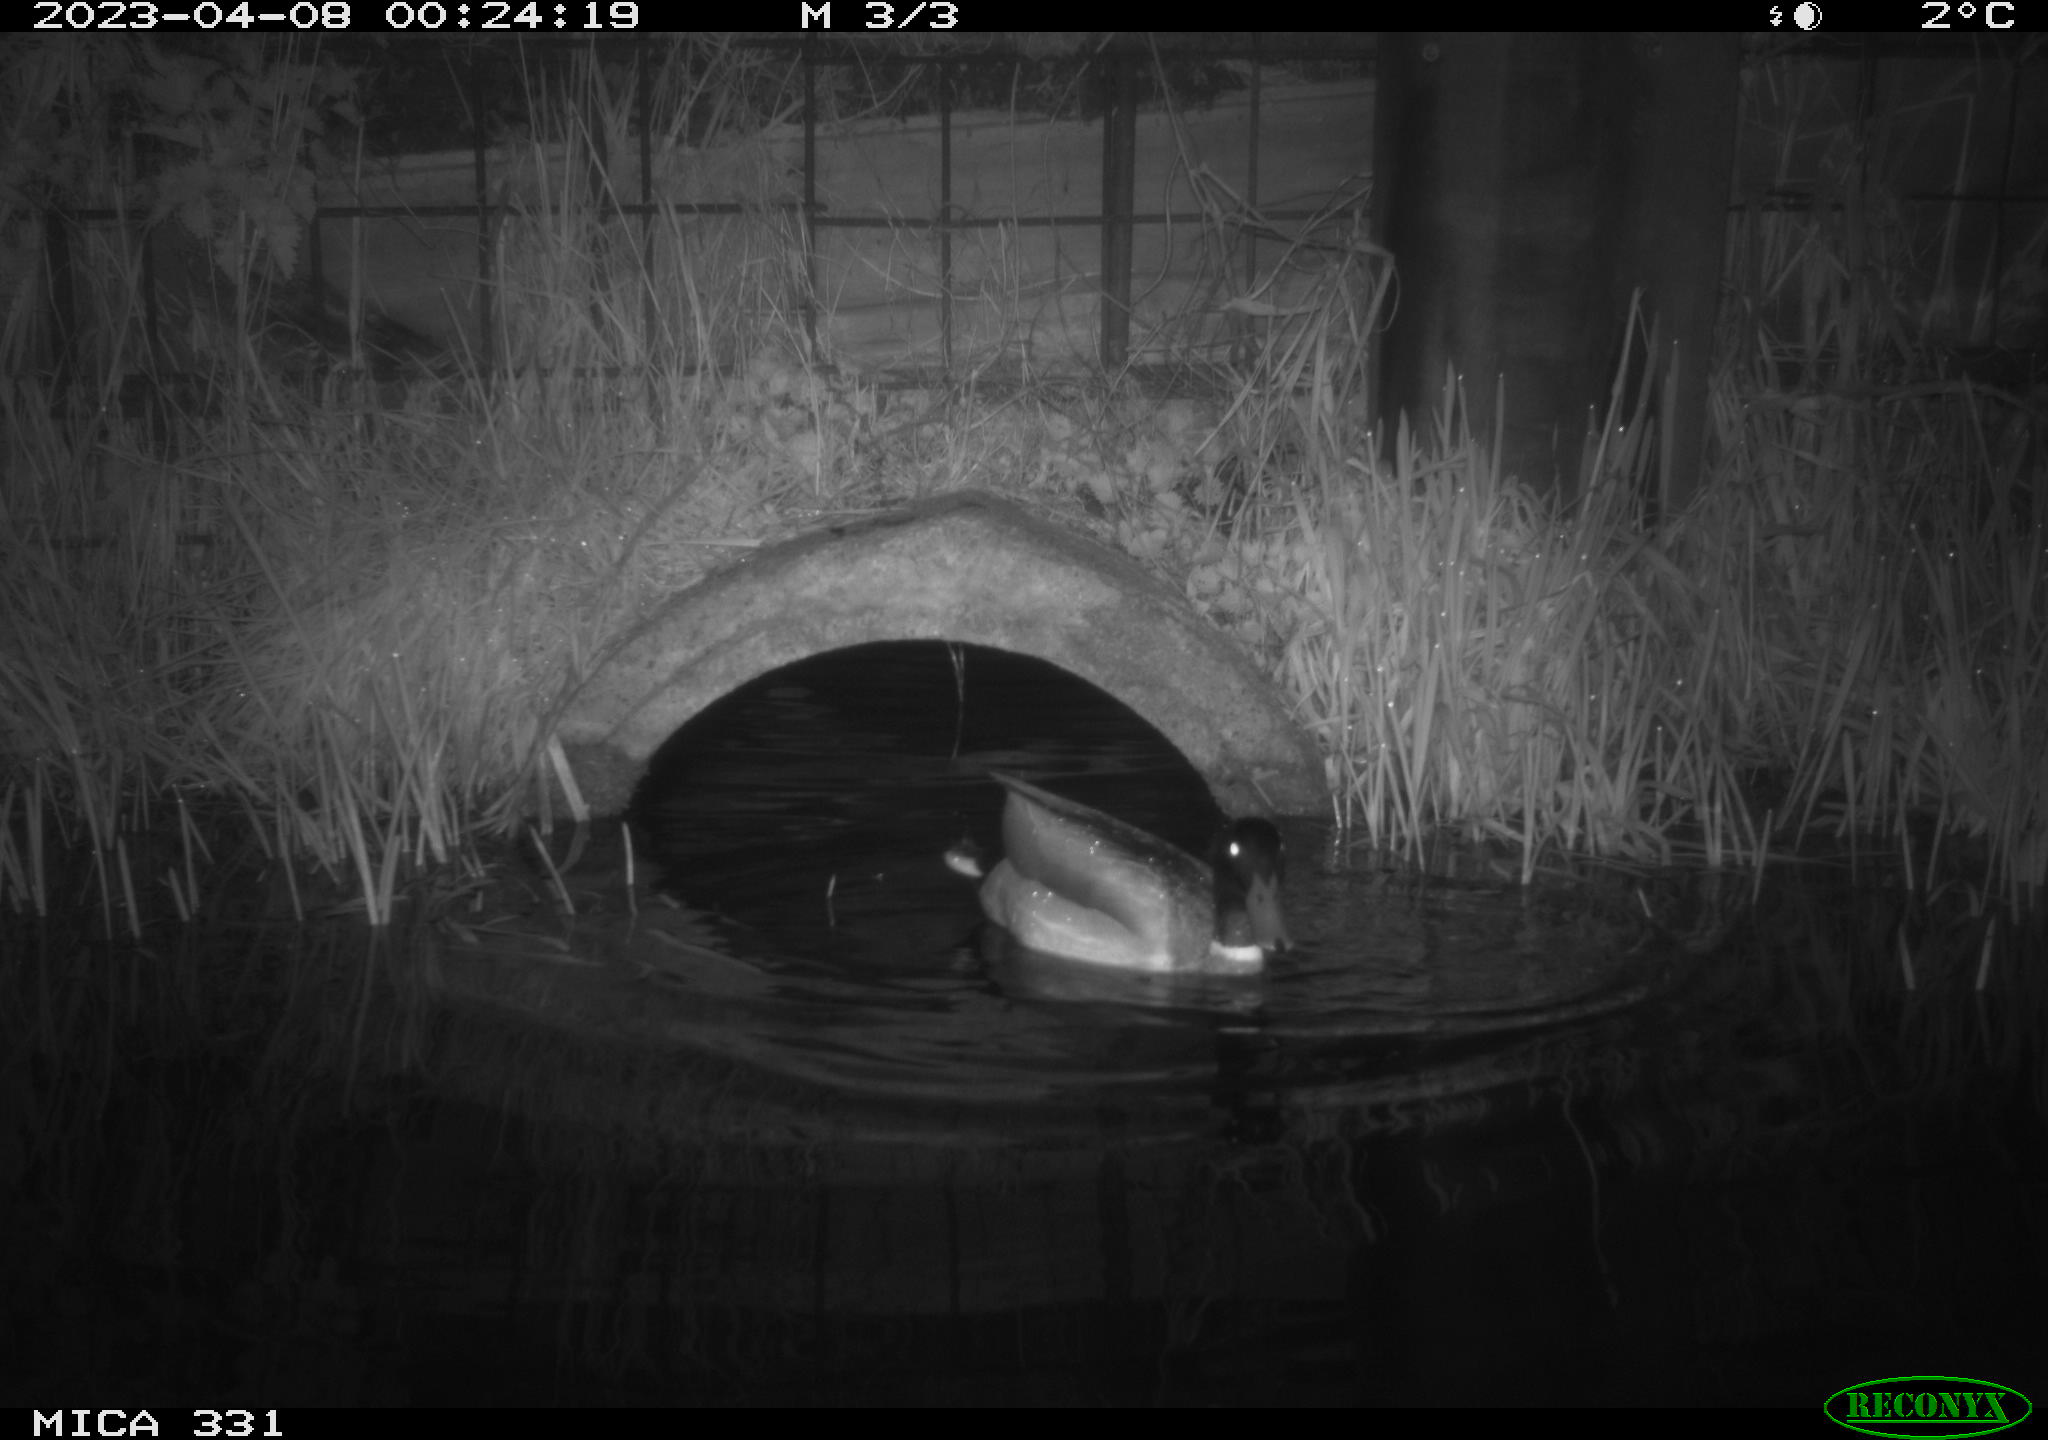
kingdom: Animalia
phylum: Chordata
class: Aves
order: Anseriformes
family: Anatidae
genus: Anas
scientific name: Anas platyrhynchos
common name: Mallard
